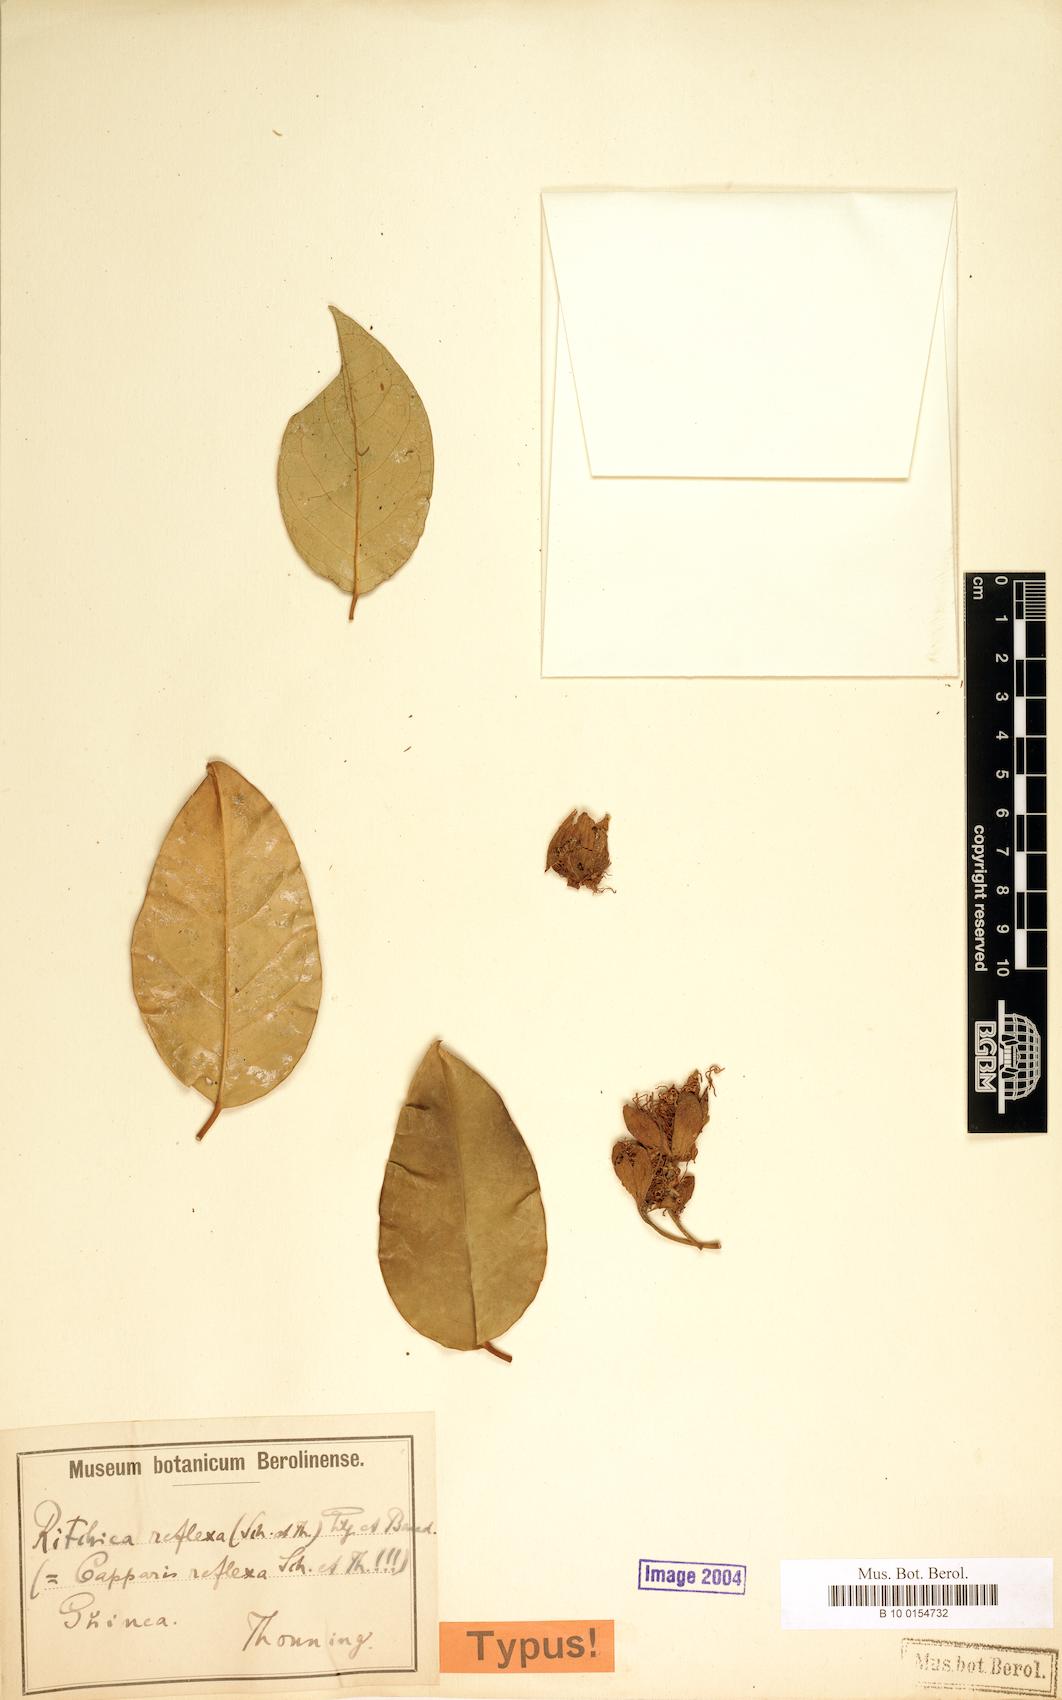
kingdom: Plantae
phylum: Tracheophyta
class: Magnoliopsida
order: Brassicales
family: Capparaceae
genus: Ritchiea
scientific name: Ritchiea reflexa
